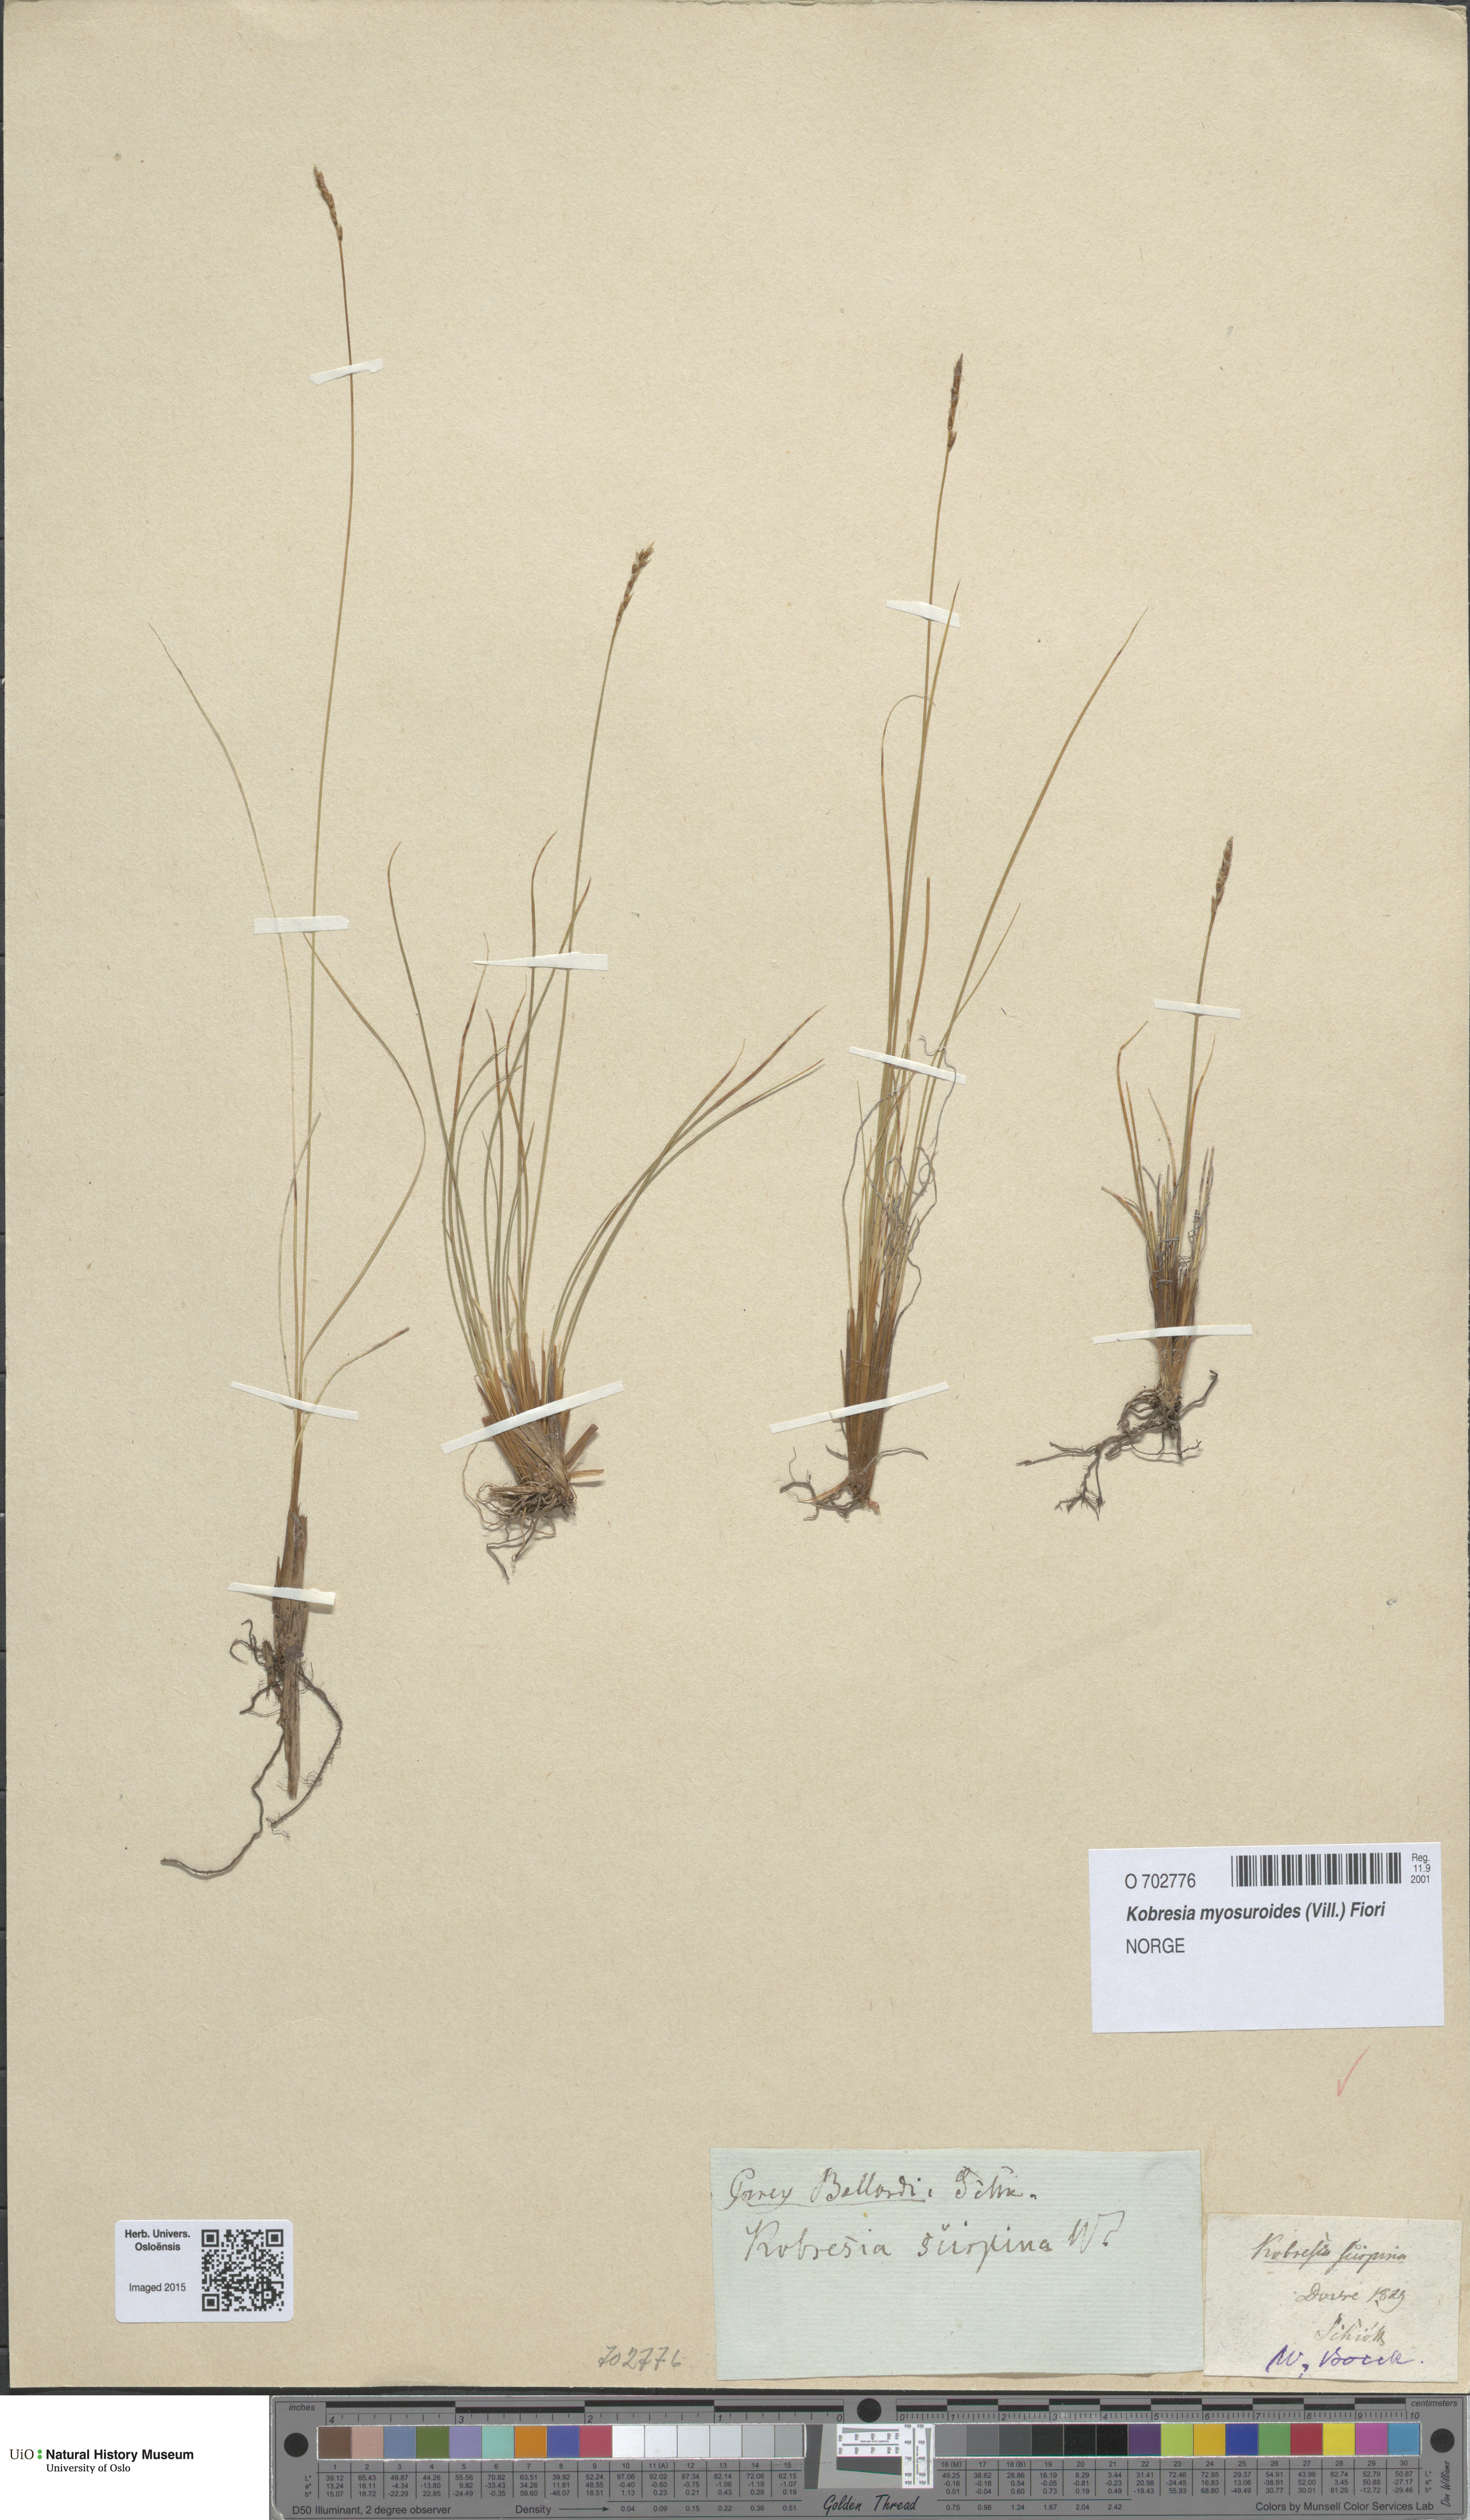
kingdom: Plantae
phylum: Tracheophyta
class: Liliopsida
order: Poales
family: Cyperaceae
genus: Carex
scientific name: Carex myosuroides
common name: Bellard's bog sedge
